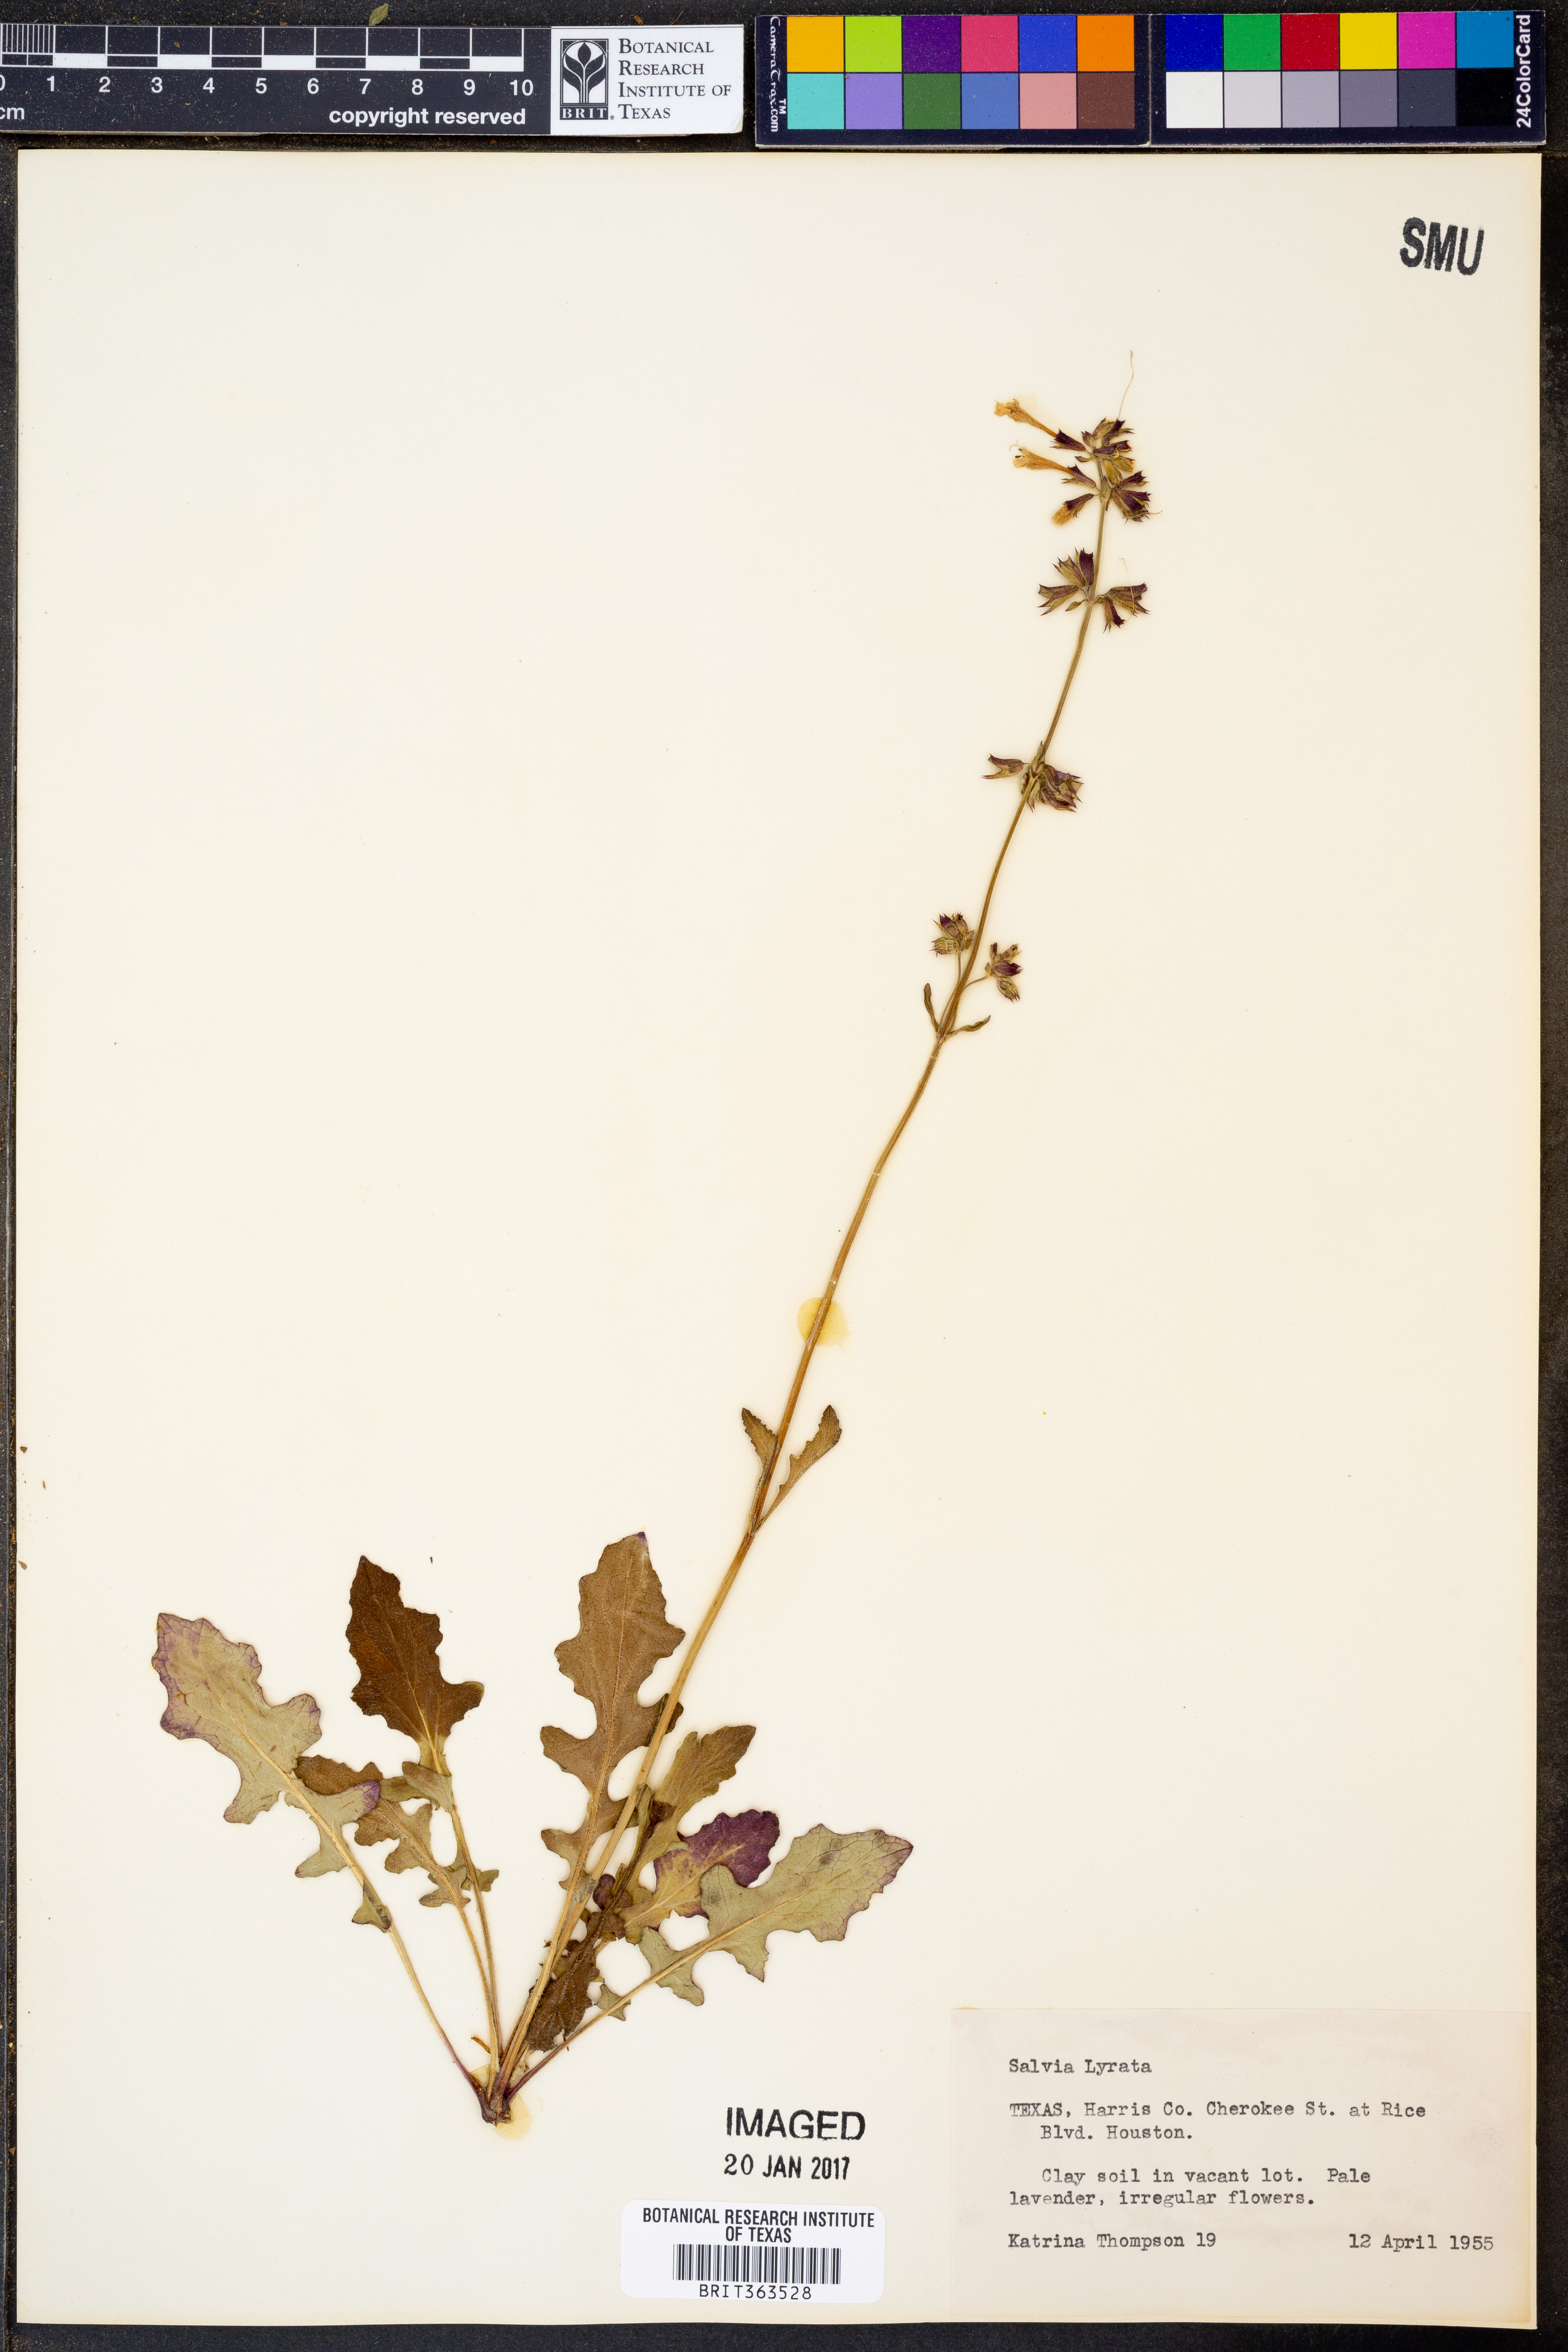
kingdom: Plantae
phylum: Tracheophyta
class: Magnoliopsida
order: Lamiales
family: Lamiaceae
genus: Salvia
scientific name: Salvia lyrata
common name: Cancerweed
